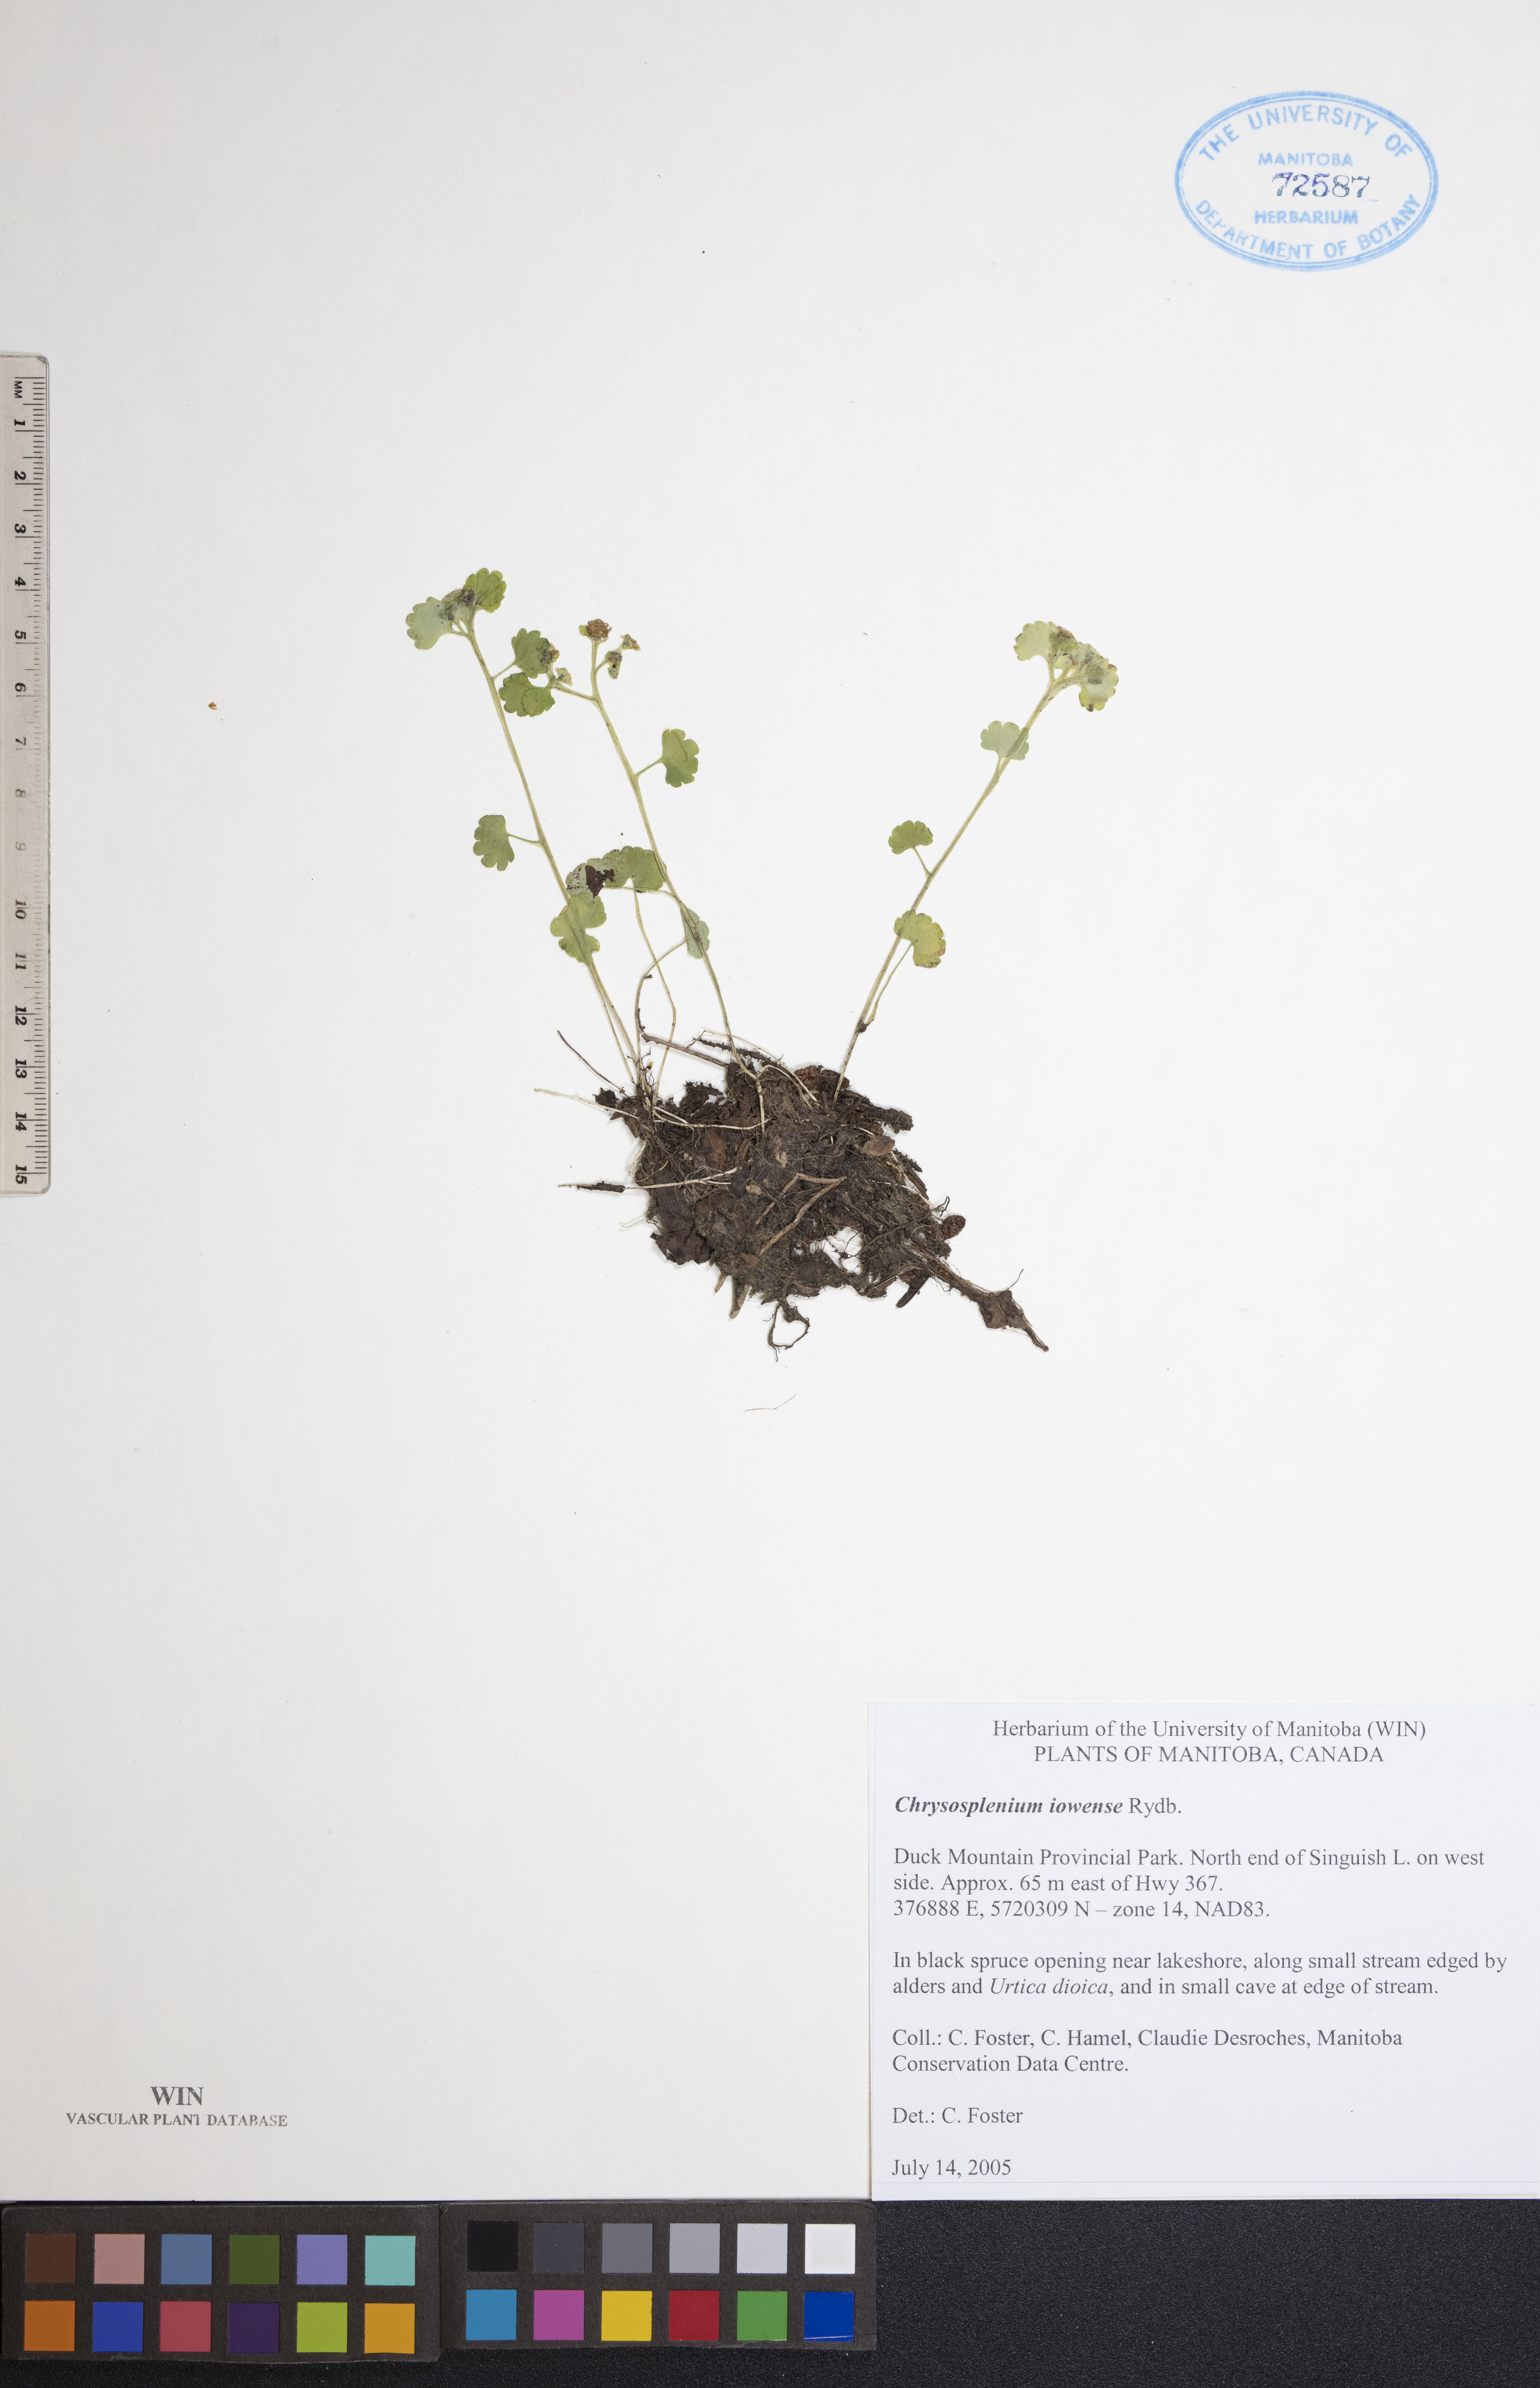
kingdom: Plantae
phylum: Tracheophyta
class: Magnoliopsida
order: Saxifragales
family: Saxifragaceae
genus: Chrysosplenium
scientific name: Chrysosplenium iowense
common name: Iowa golden carpet
